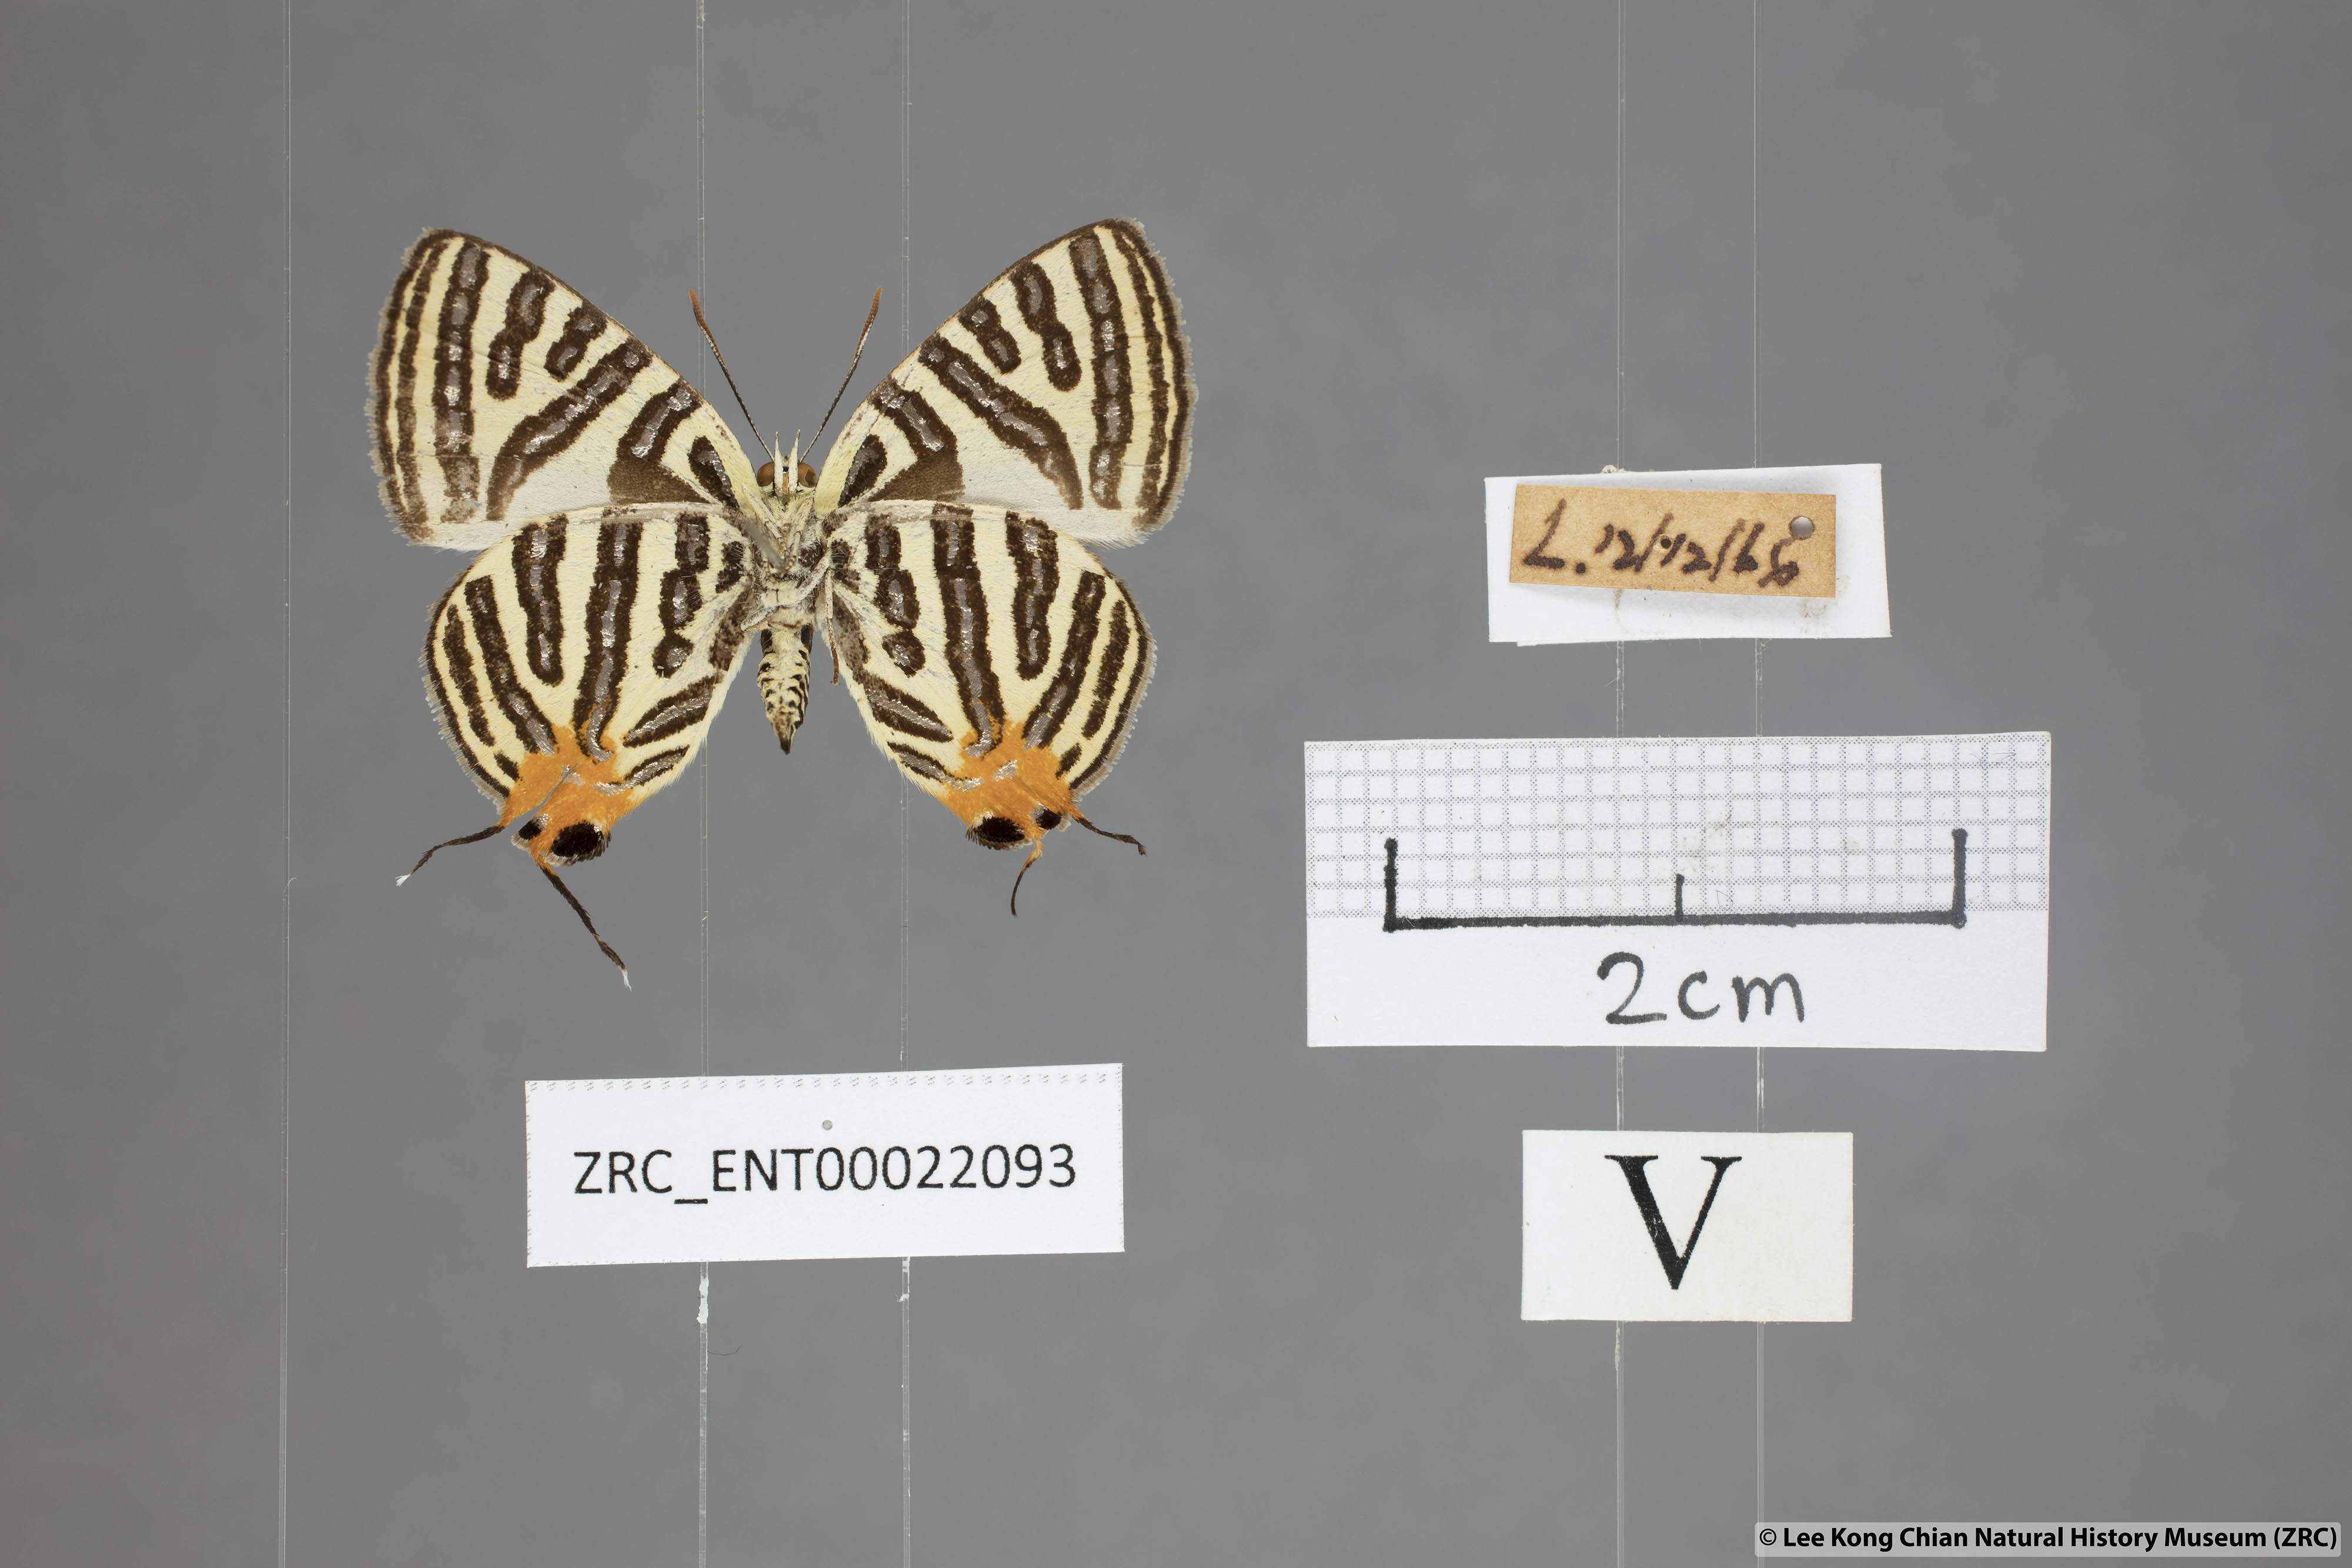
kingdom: Animalia
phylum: Arthropoda
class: Insecta
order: Lepidoptera
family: Lycaenidae
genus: Spindasis
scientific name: Spindasis syama
